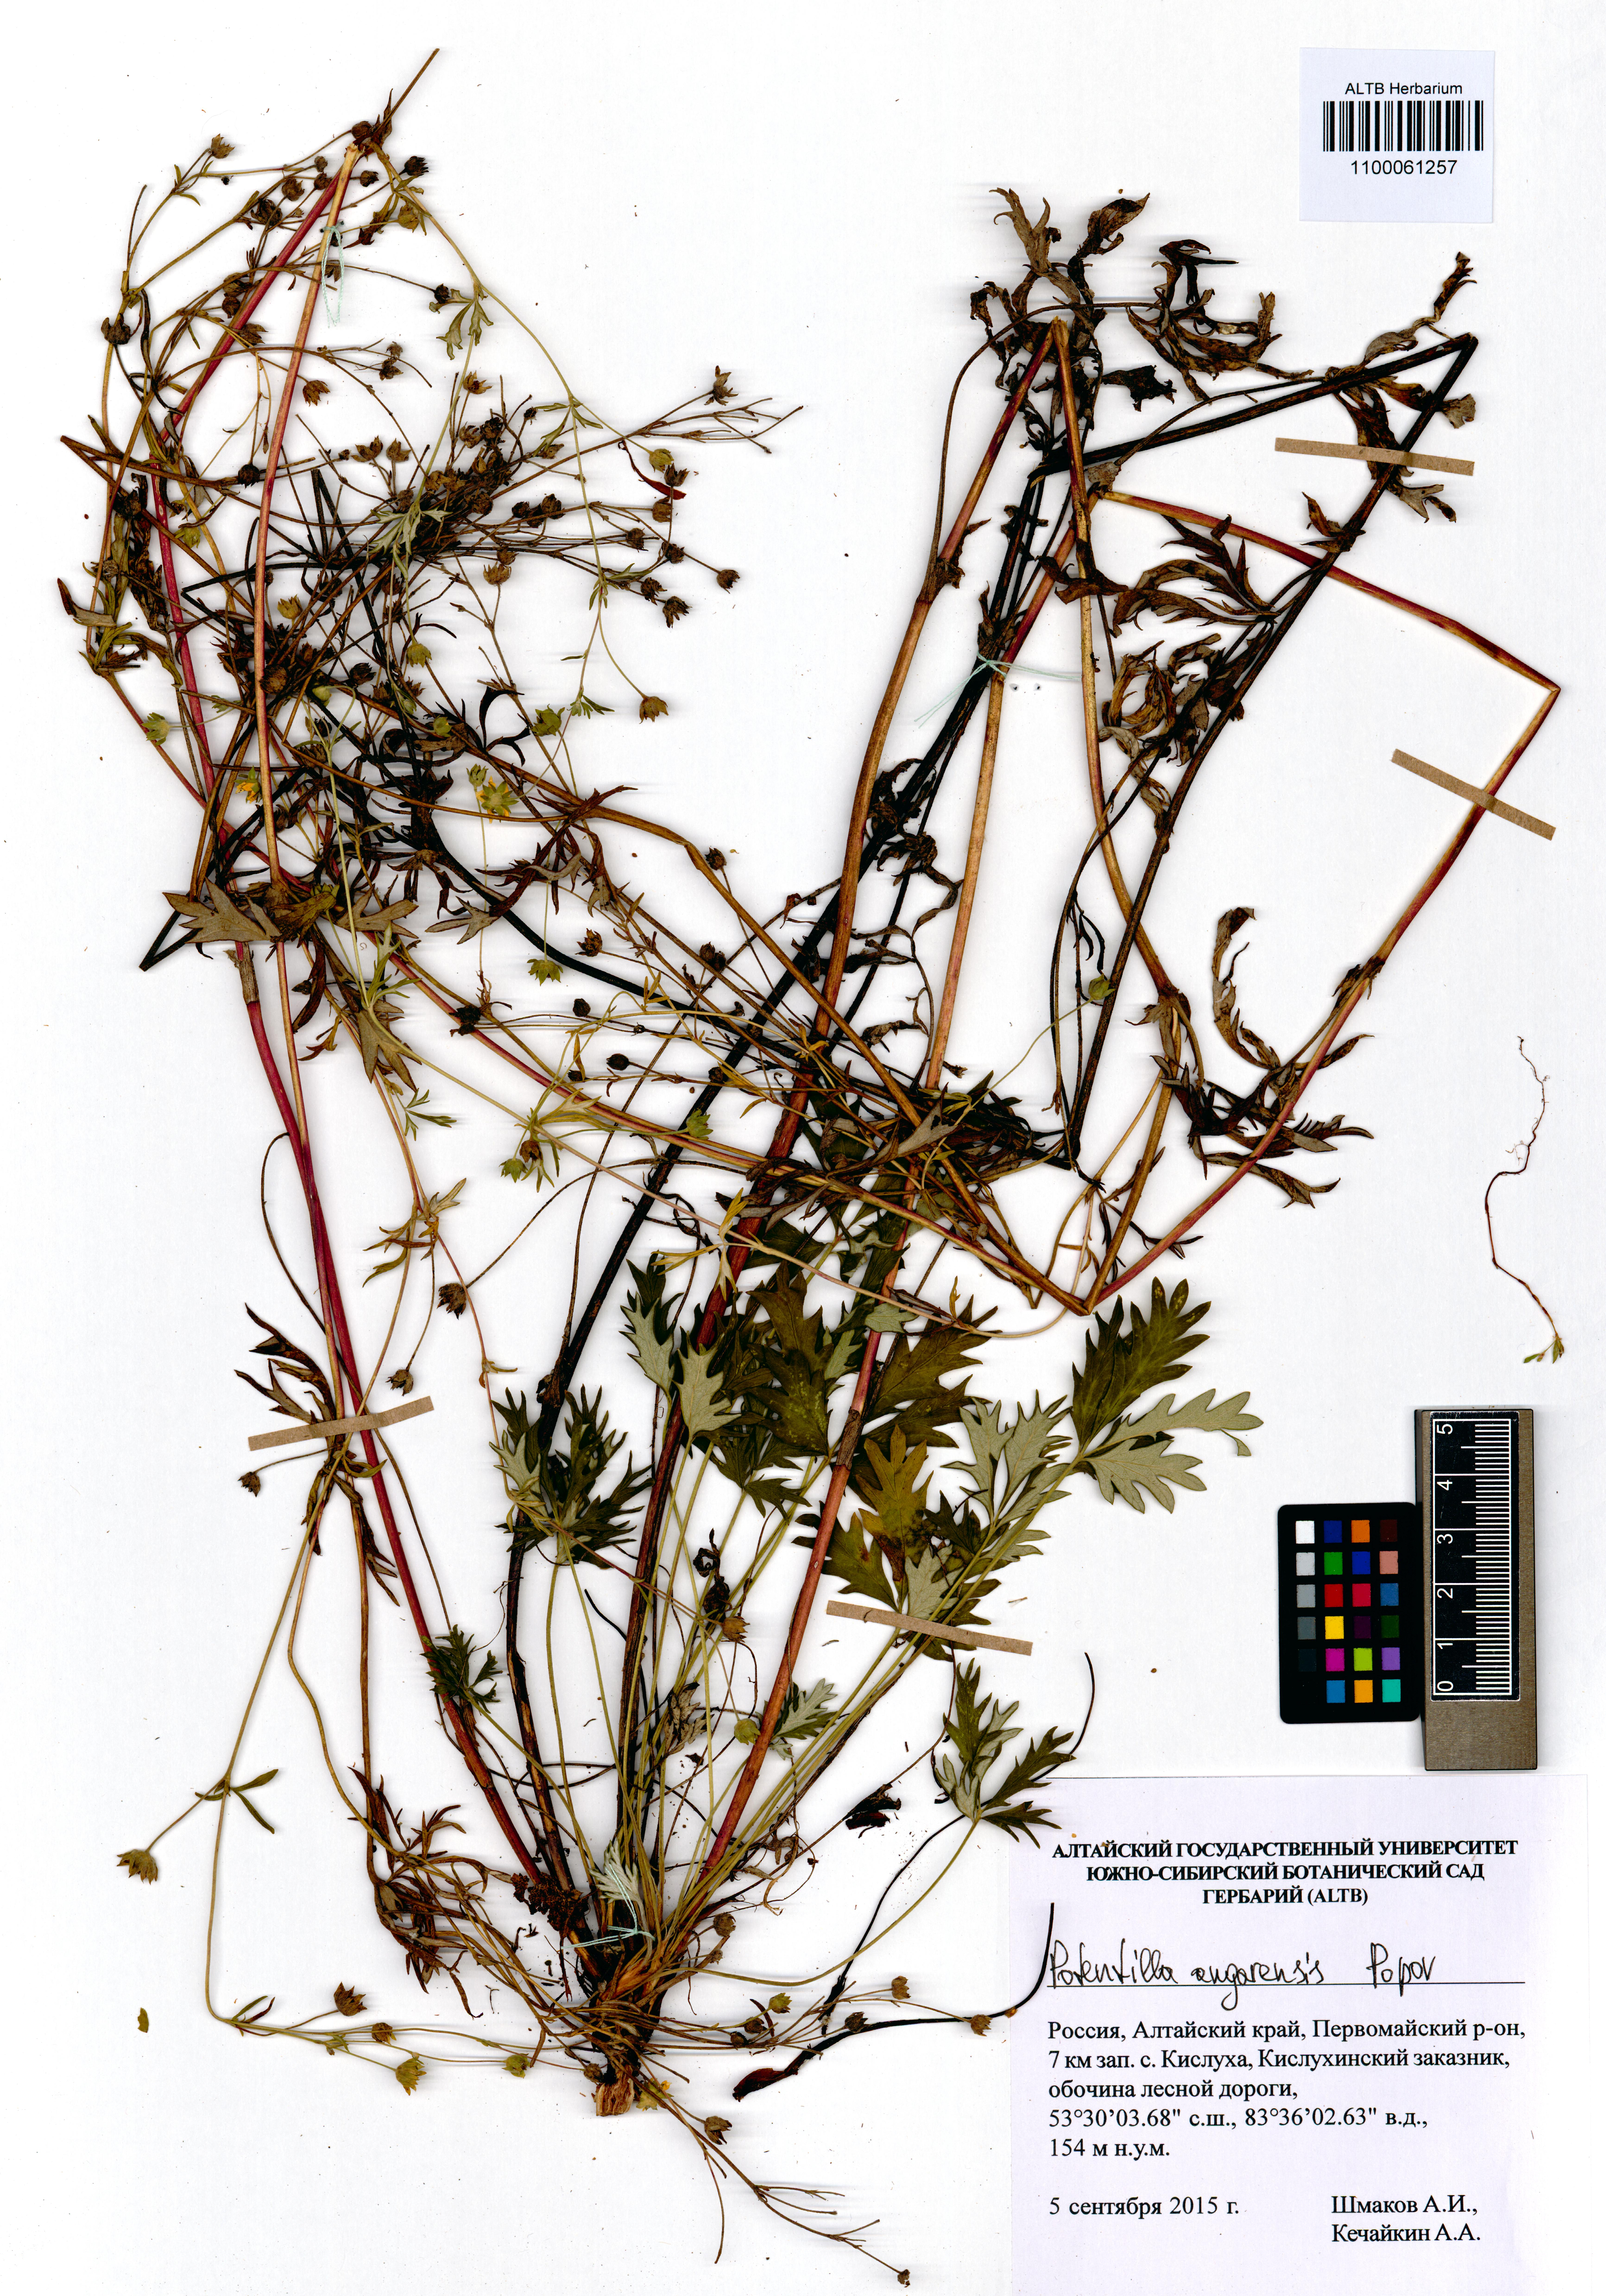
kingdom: Plantae
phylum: Tracheophyta
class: Magnoliopsida
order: Rosales
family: Rosaceae
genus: Potentilla
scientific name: Potentilla angarensis
